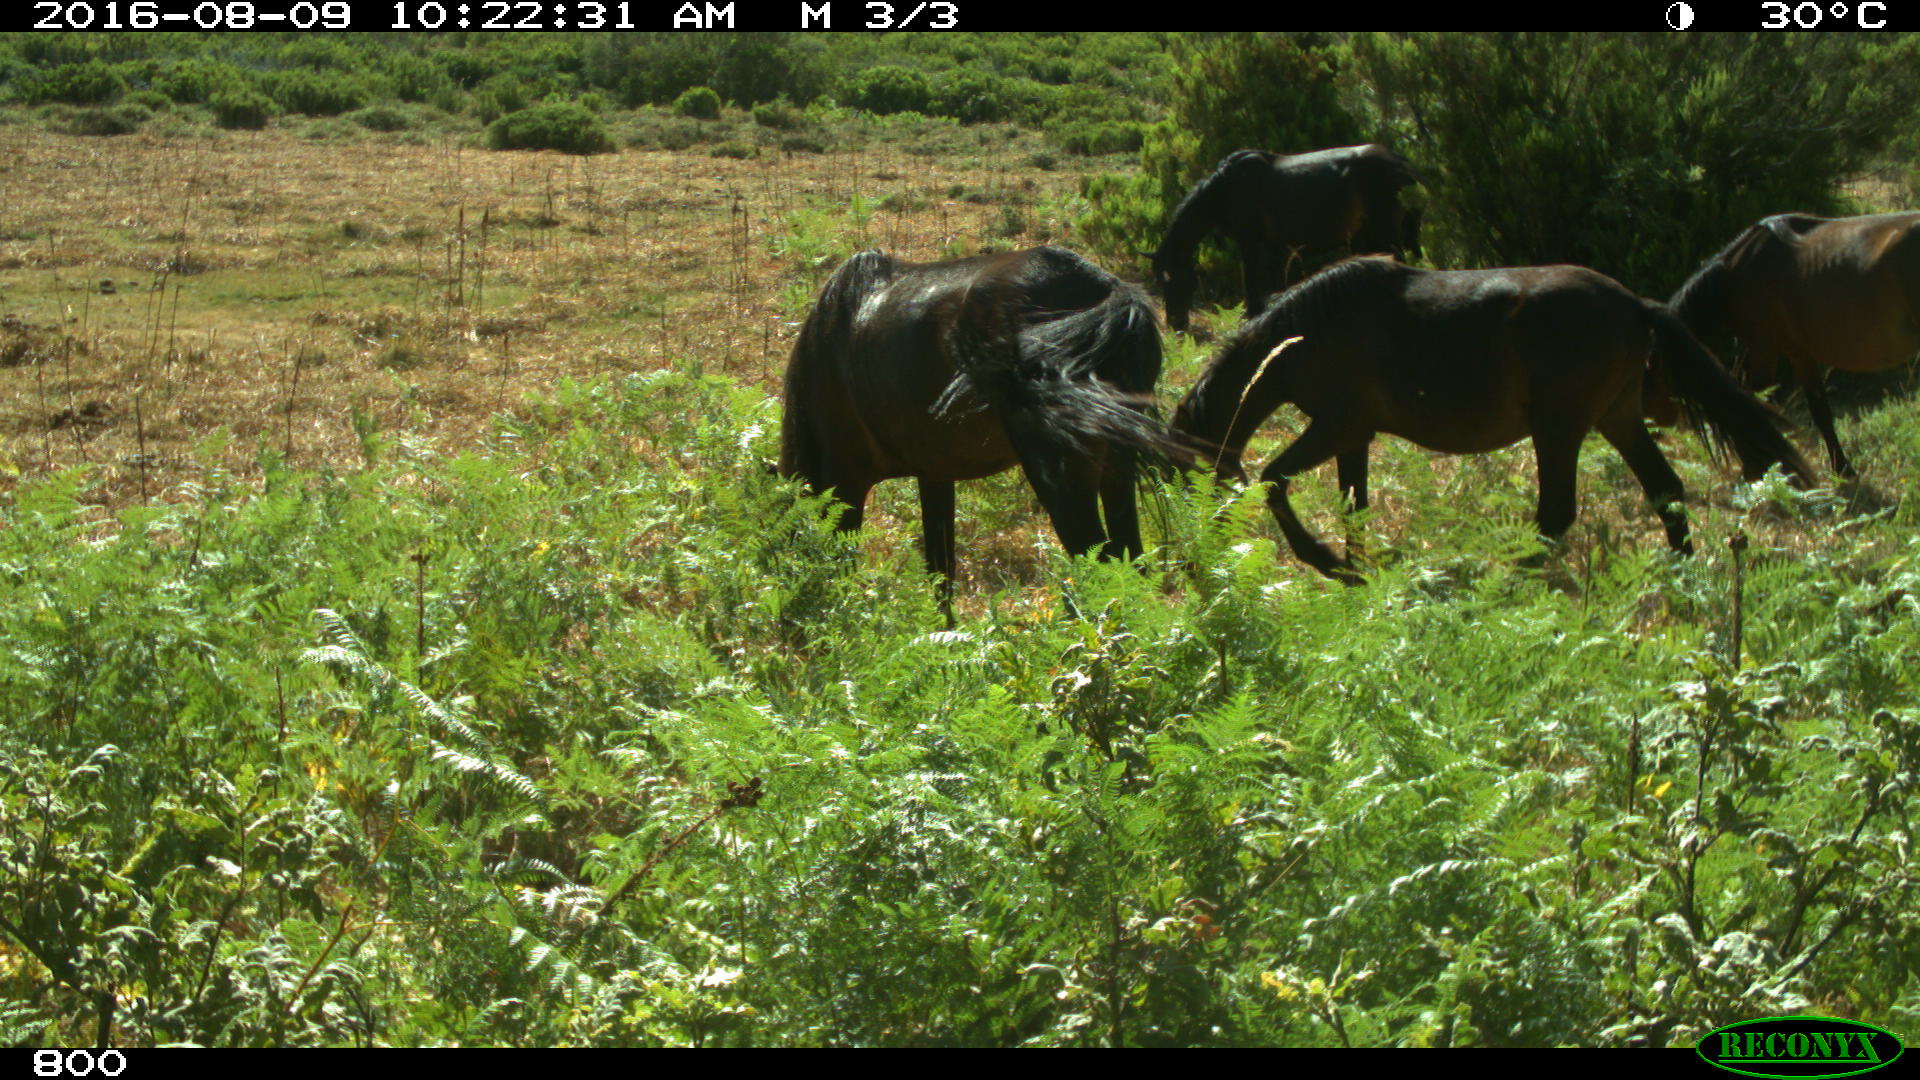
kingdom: Animalia
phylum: Chordata
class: Mammalia
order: Perissodactyla
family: Equidae
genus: Equus
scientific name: Equus caballus
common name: Horse
